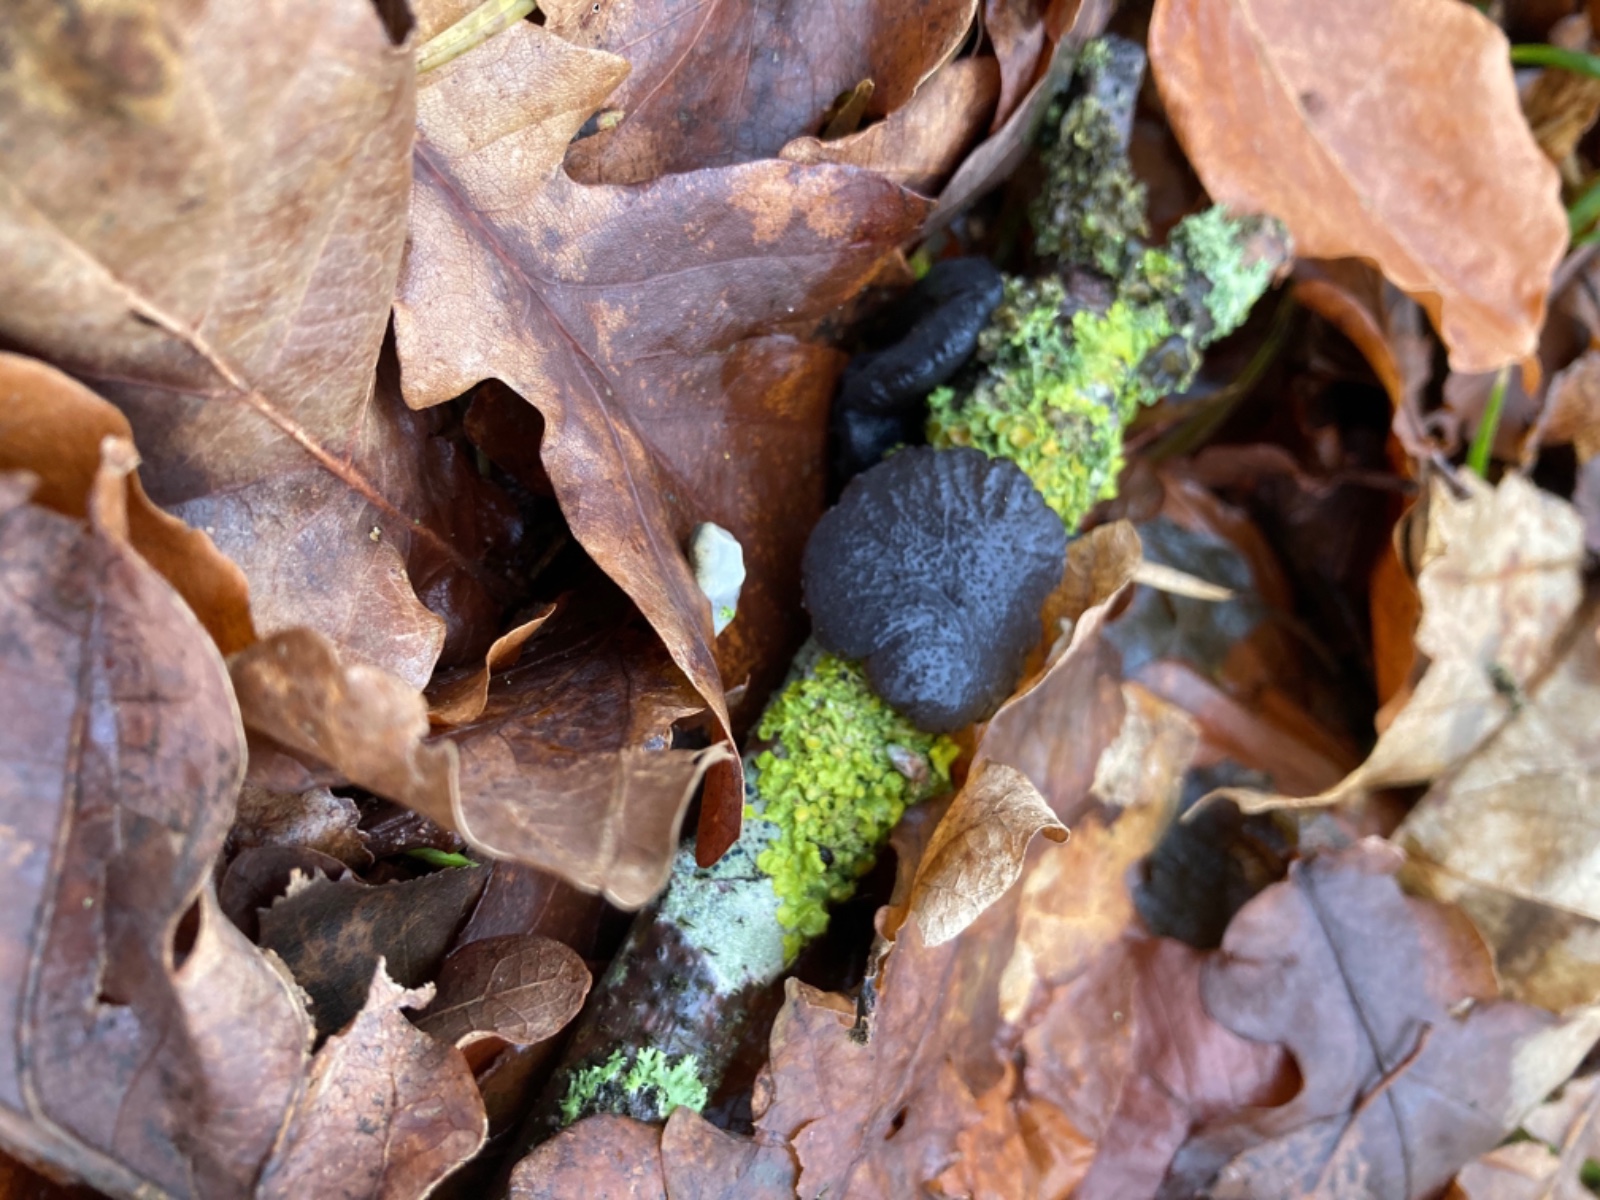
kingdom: Fungi
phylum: Basidiomycota
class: Agaricomycetes
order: Auriculariales
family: Auriculariaceae
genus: Exidia
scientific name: Exidia glandulosa
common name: ege-bævretop
